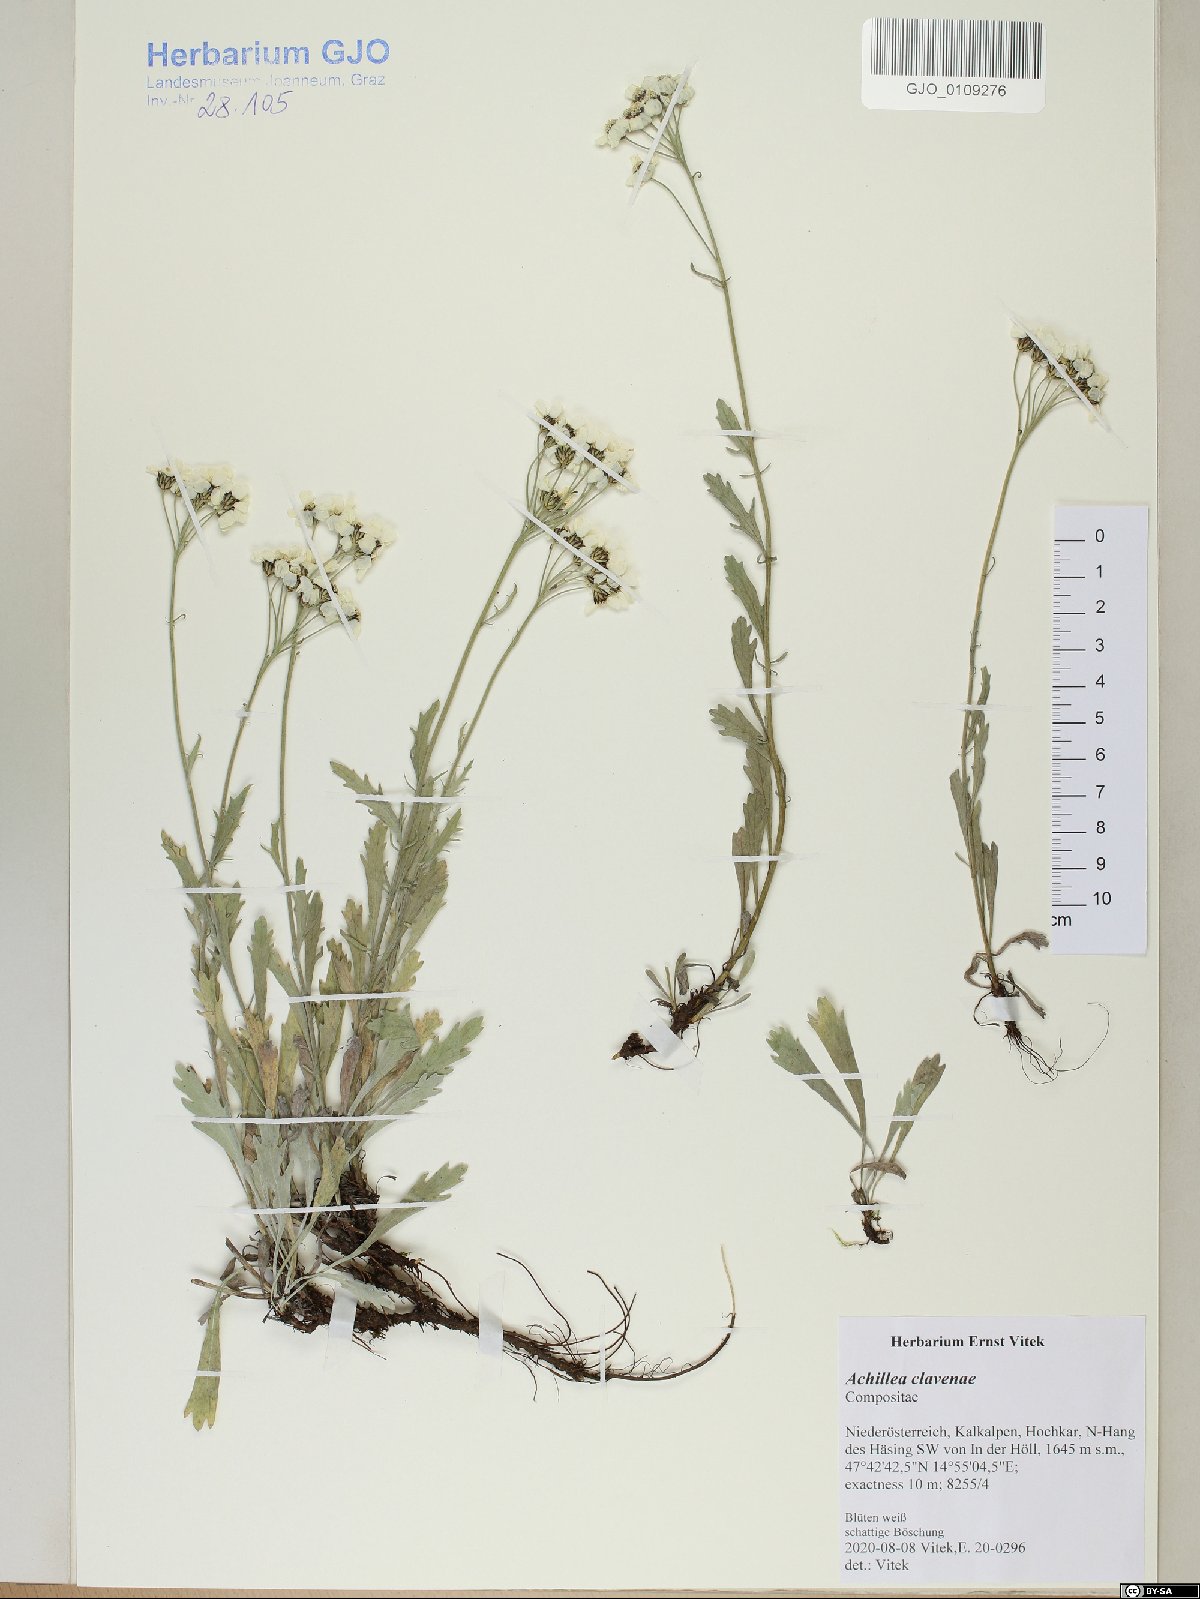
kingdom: Plantae
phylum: Tracheophyta
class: Magnoliopsida
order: Asterales
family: Asteraceae
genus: Achillea
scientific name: Achillea clavennae
